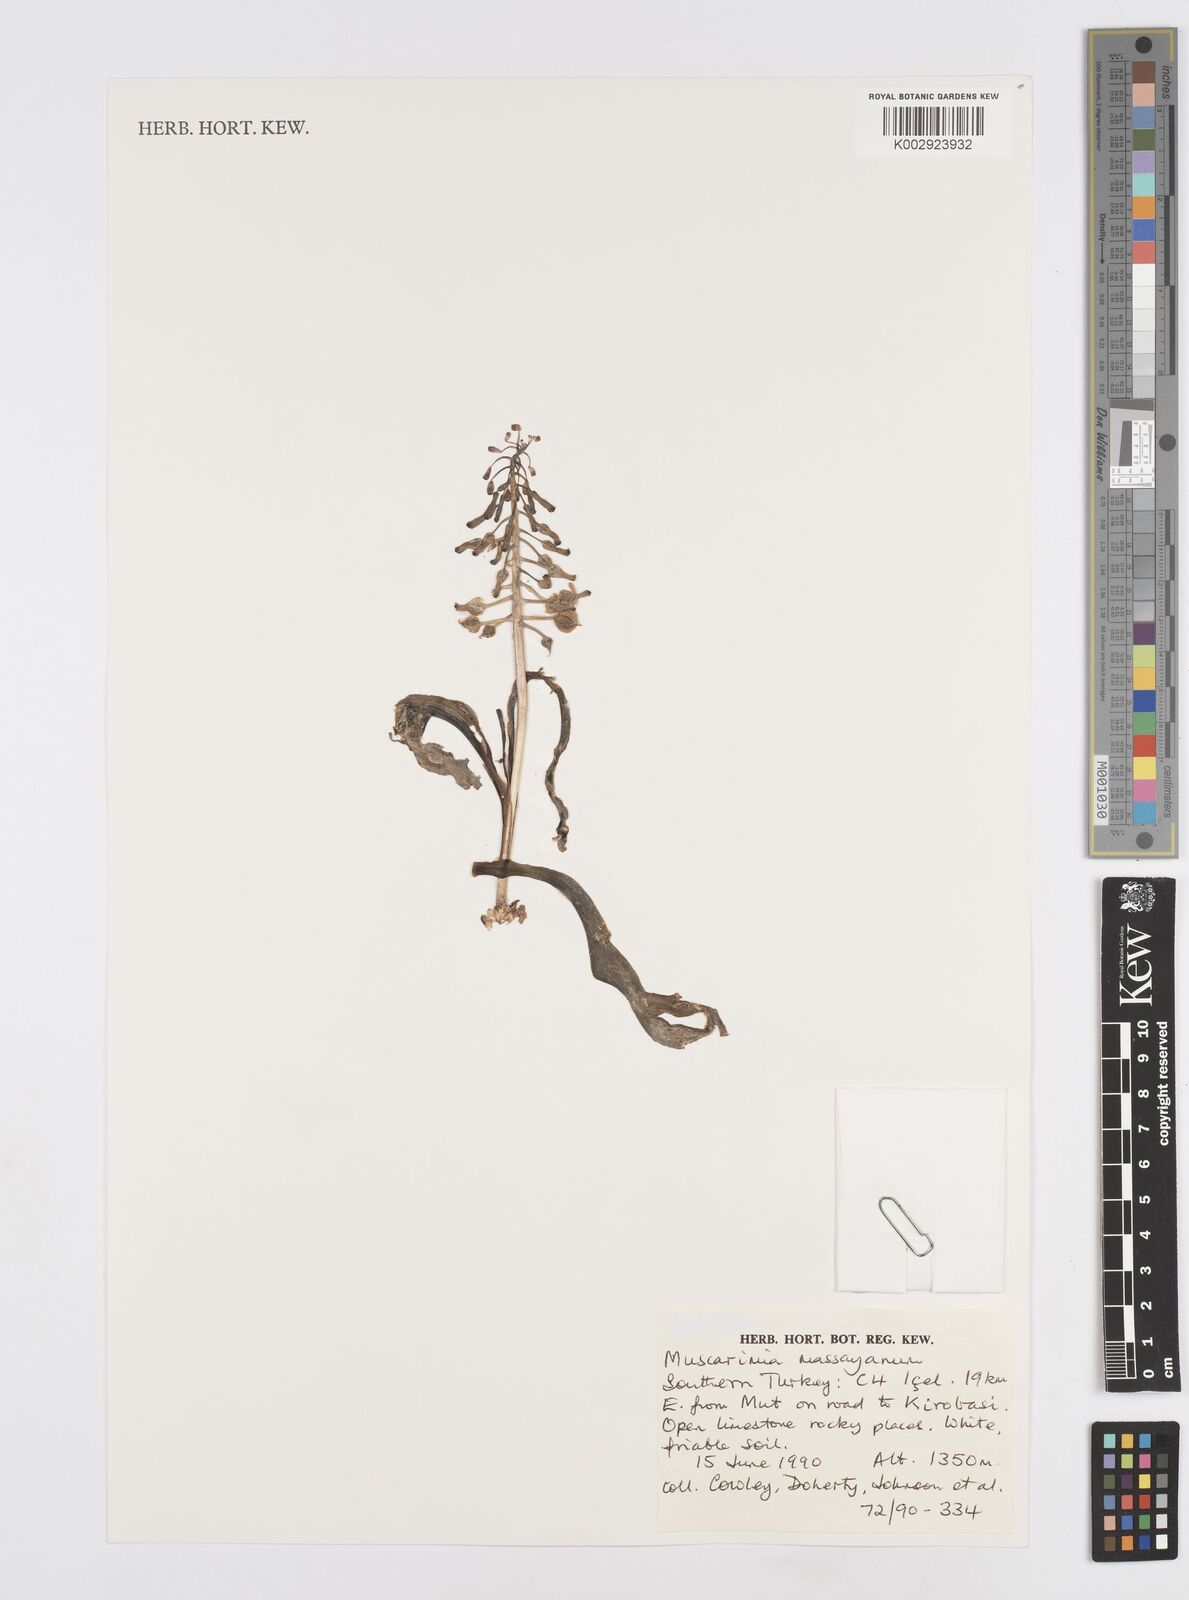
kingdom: Plantae
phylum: Tracheophyta
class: Liliopsida
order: Asparagales
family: Asparagaceae
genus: Muscari
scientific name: Muscari massayanum
